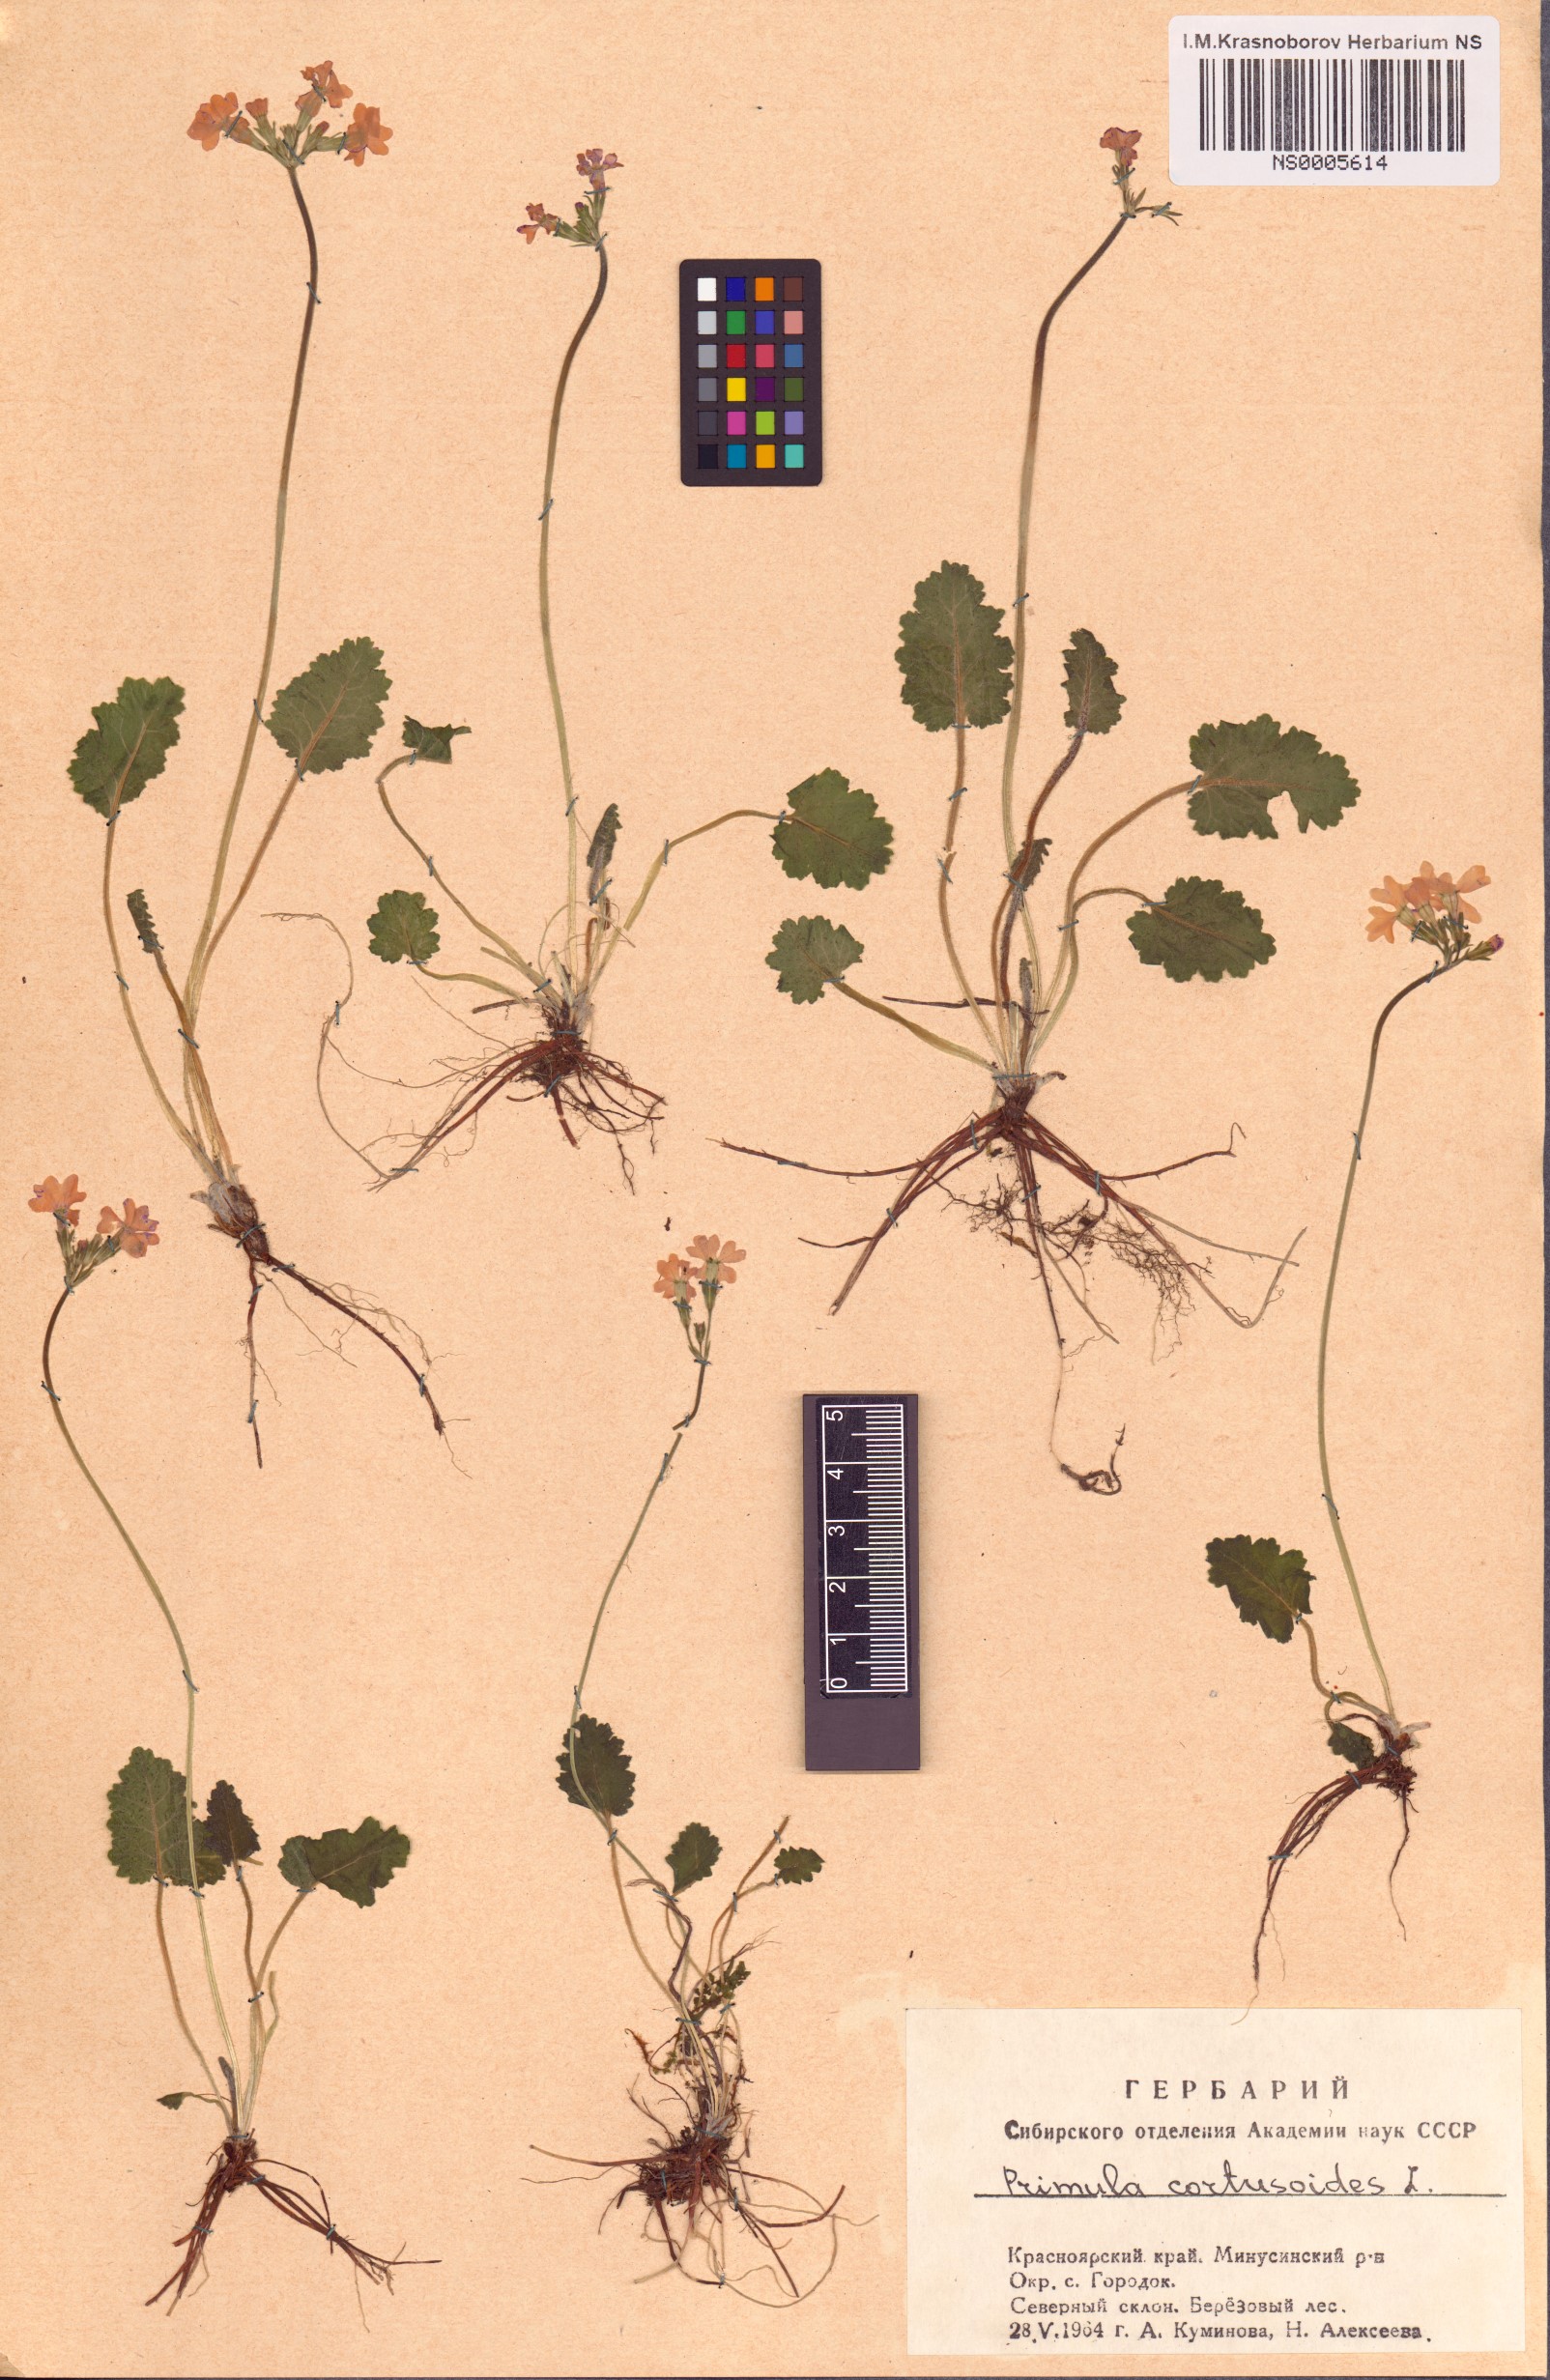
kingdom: Plantae
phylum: Tracheophyta
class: Magnoliopsida
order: Ericales
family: Primulaceae
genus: Primula
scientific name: Primula cortusoides
